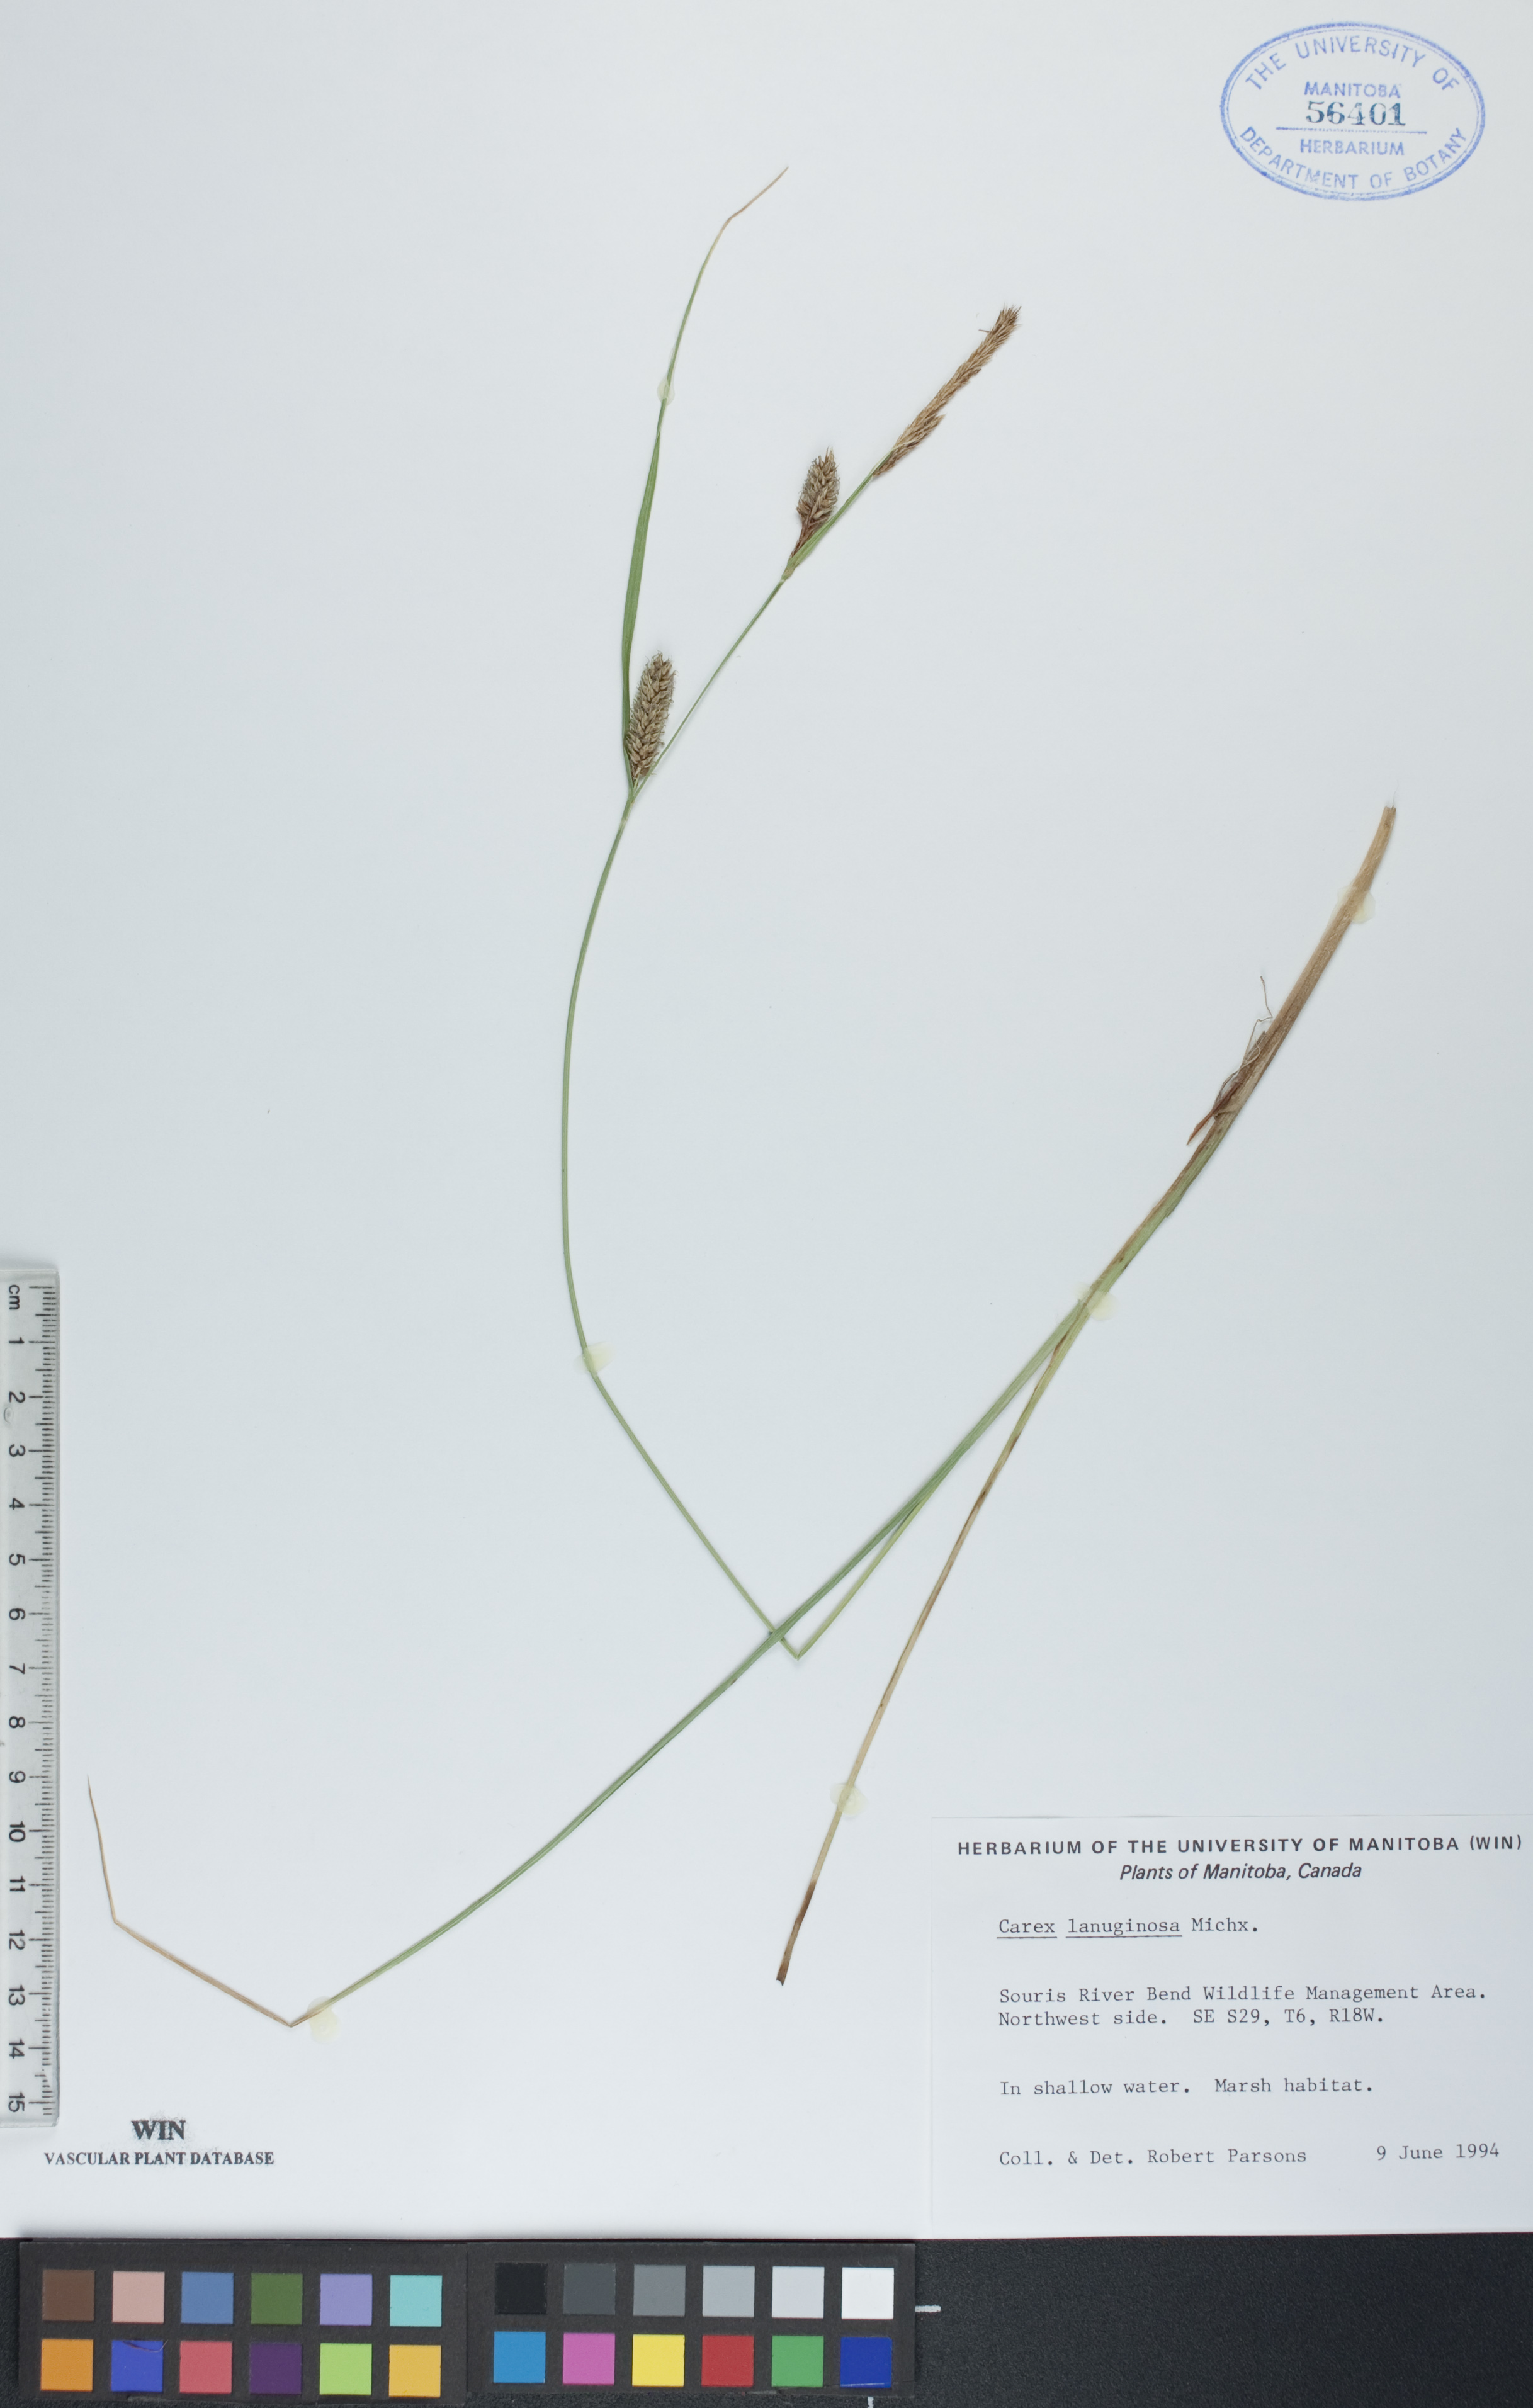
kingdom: Plantae
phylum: Tracheophyta
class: Liliopsida
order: Poales
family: Cyperaceae
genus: Carex
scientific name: Carex lasiocarpa
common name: Slender sedge
